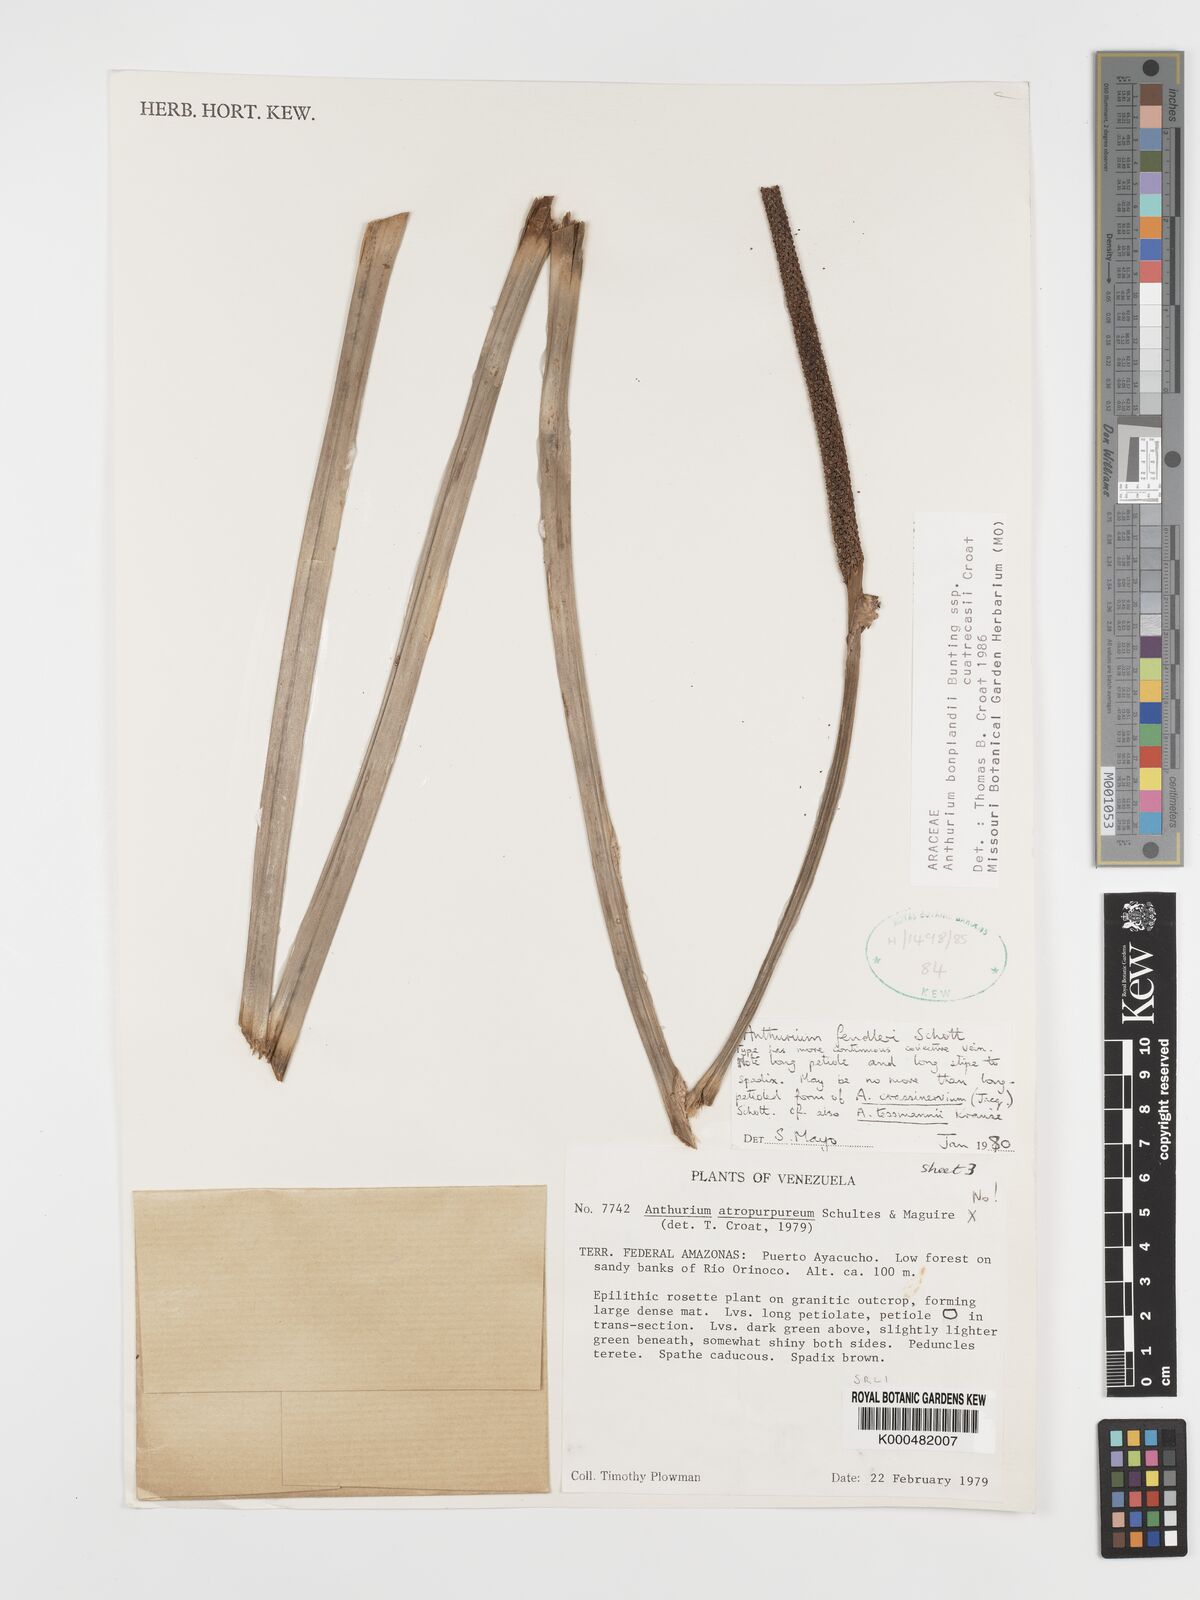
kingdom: Plantae
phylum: Tracheophyta
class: Liliopsida
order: Alismatales
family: Araceae
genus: Anthurium
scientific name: Anthurium
